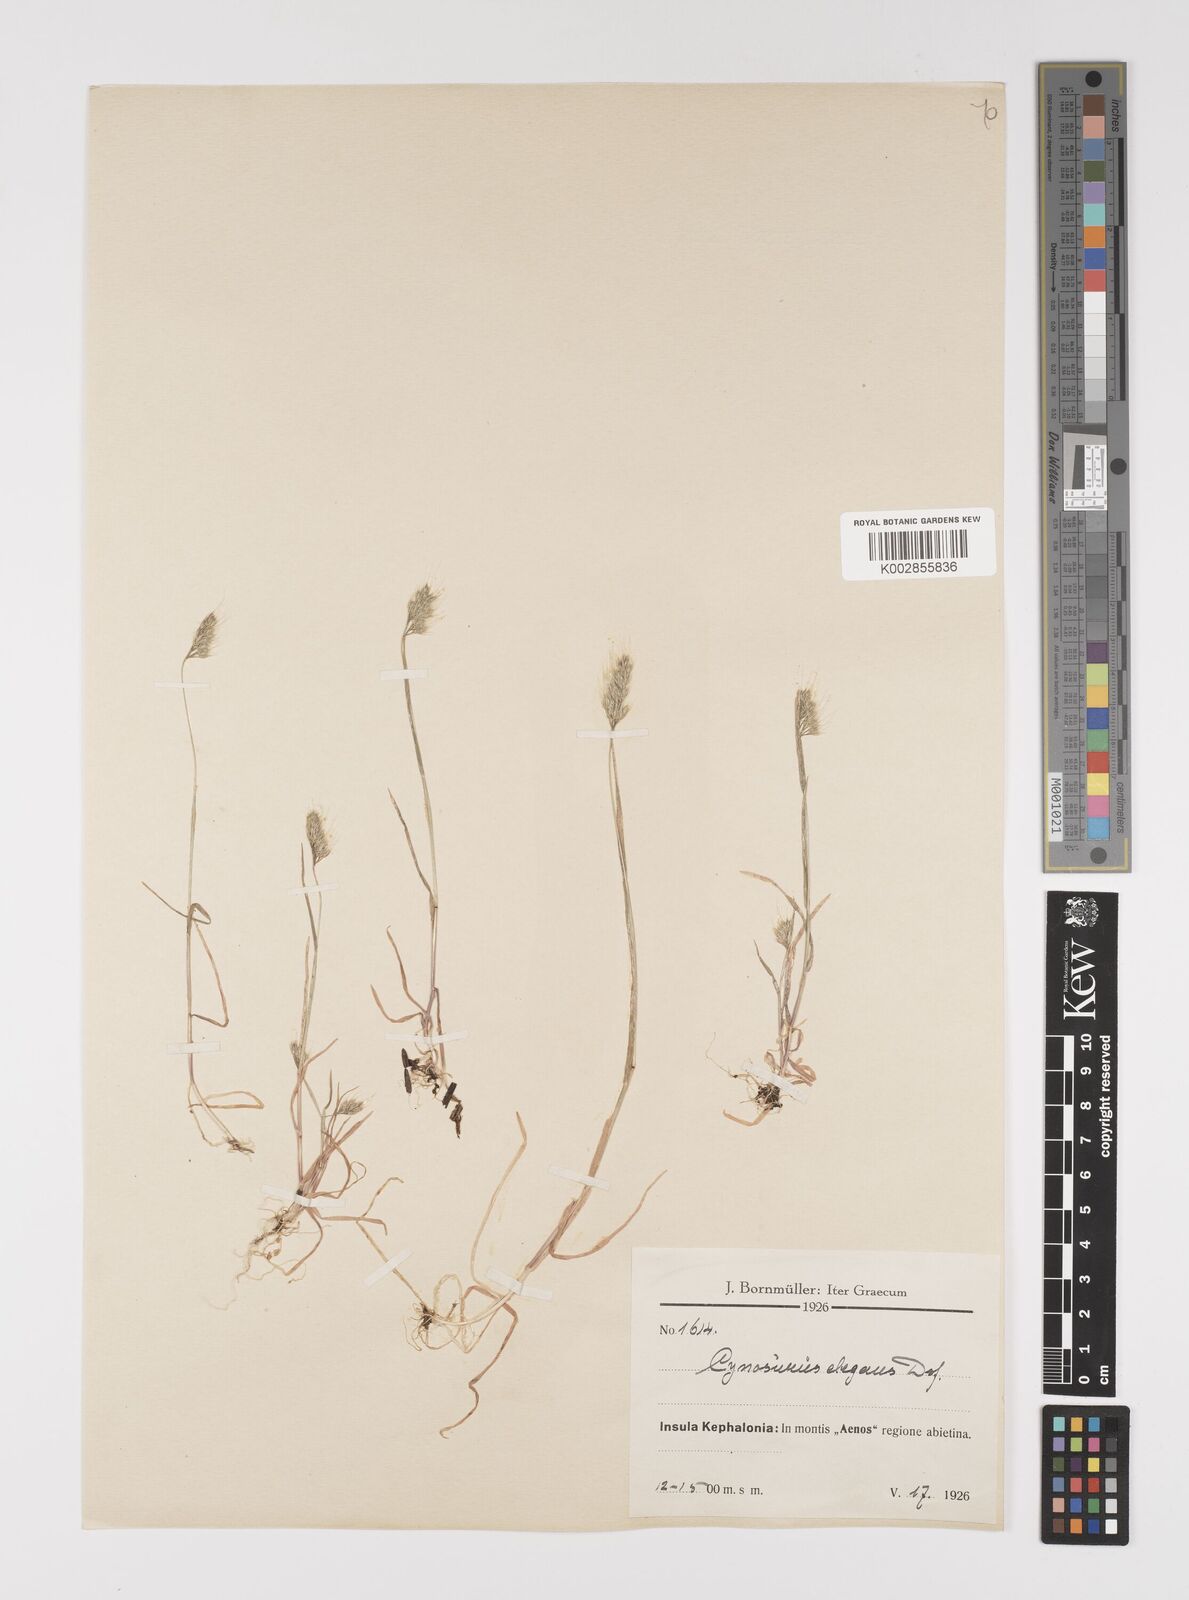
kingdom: Plantae
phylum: Tracheophyta
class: Liliopsida
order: Poales
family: Poaceae
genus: Cynosurus
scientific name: Cynosurus elegans
